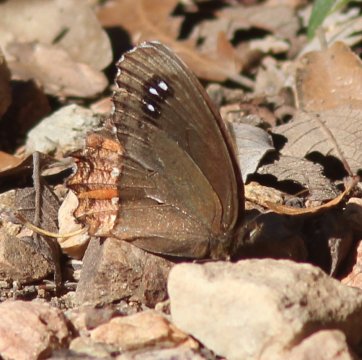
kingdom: Animalia
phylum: Arthropoda
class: Insecta
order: Lepidoptera
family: Nymphalidae
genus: Gyrocheilus
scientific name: Gyrocheilus patrobas
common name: Red-bordered Satyr
